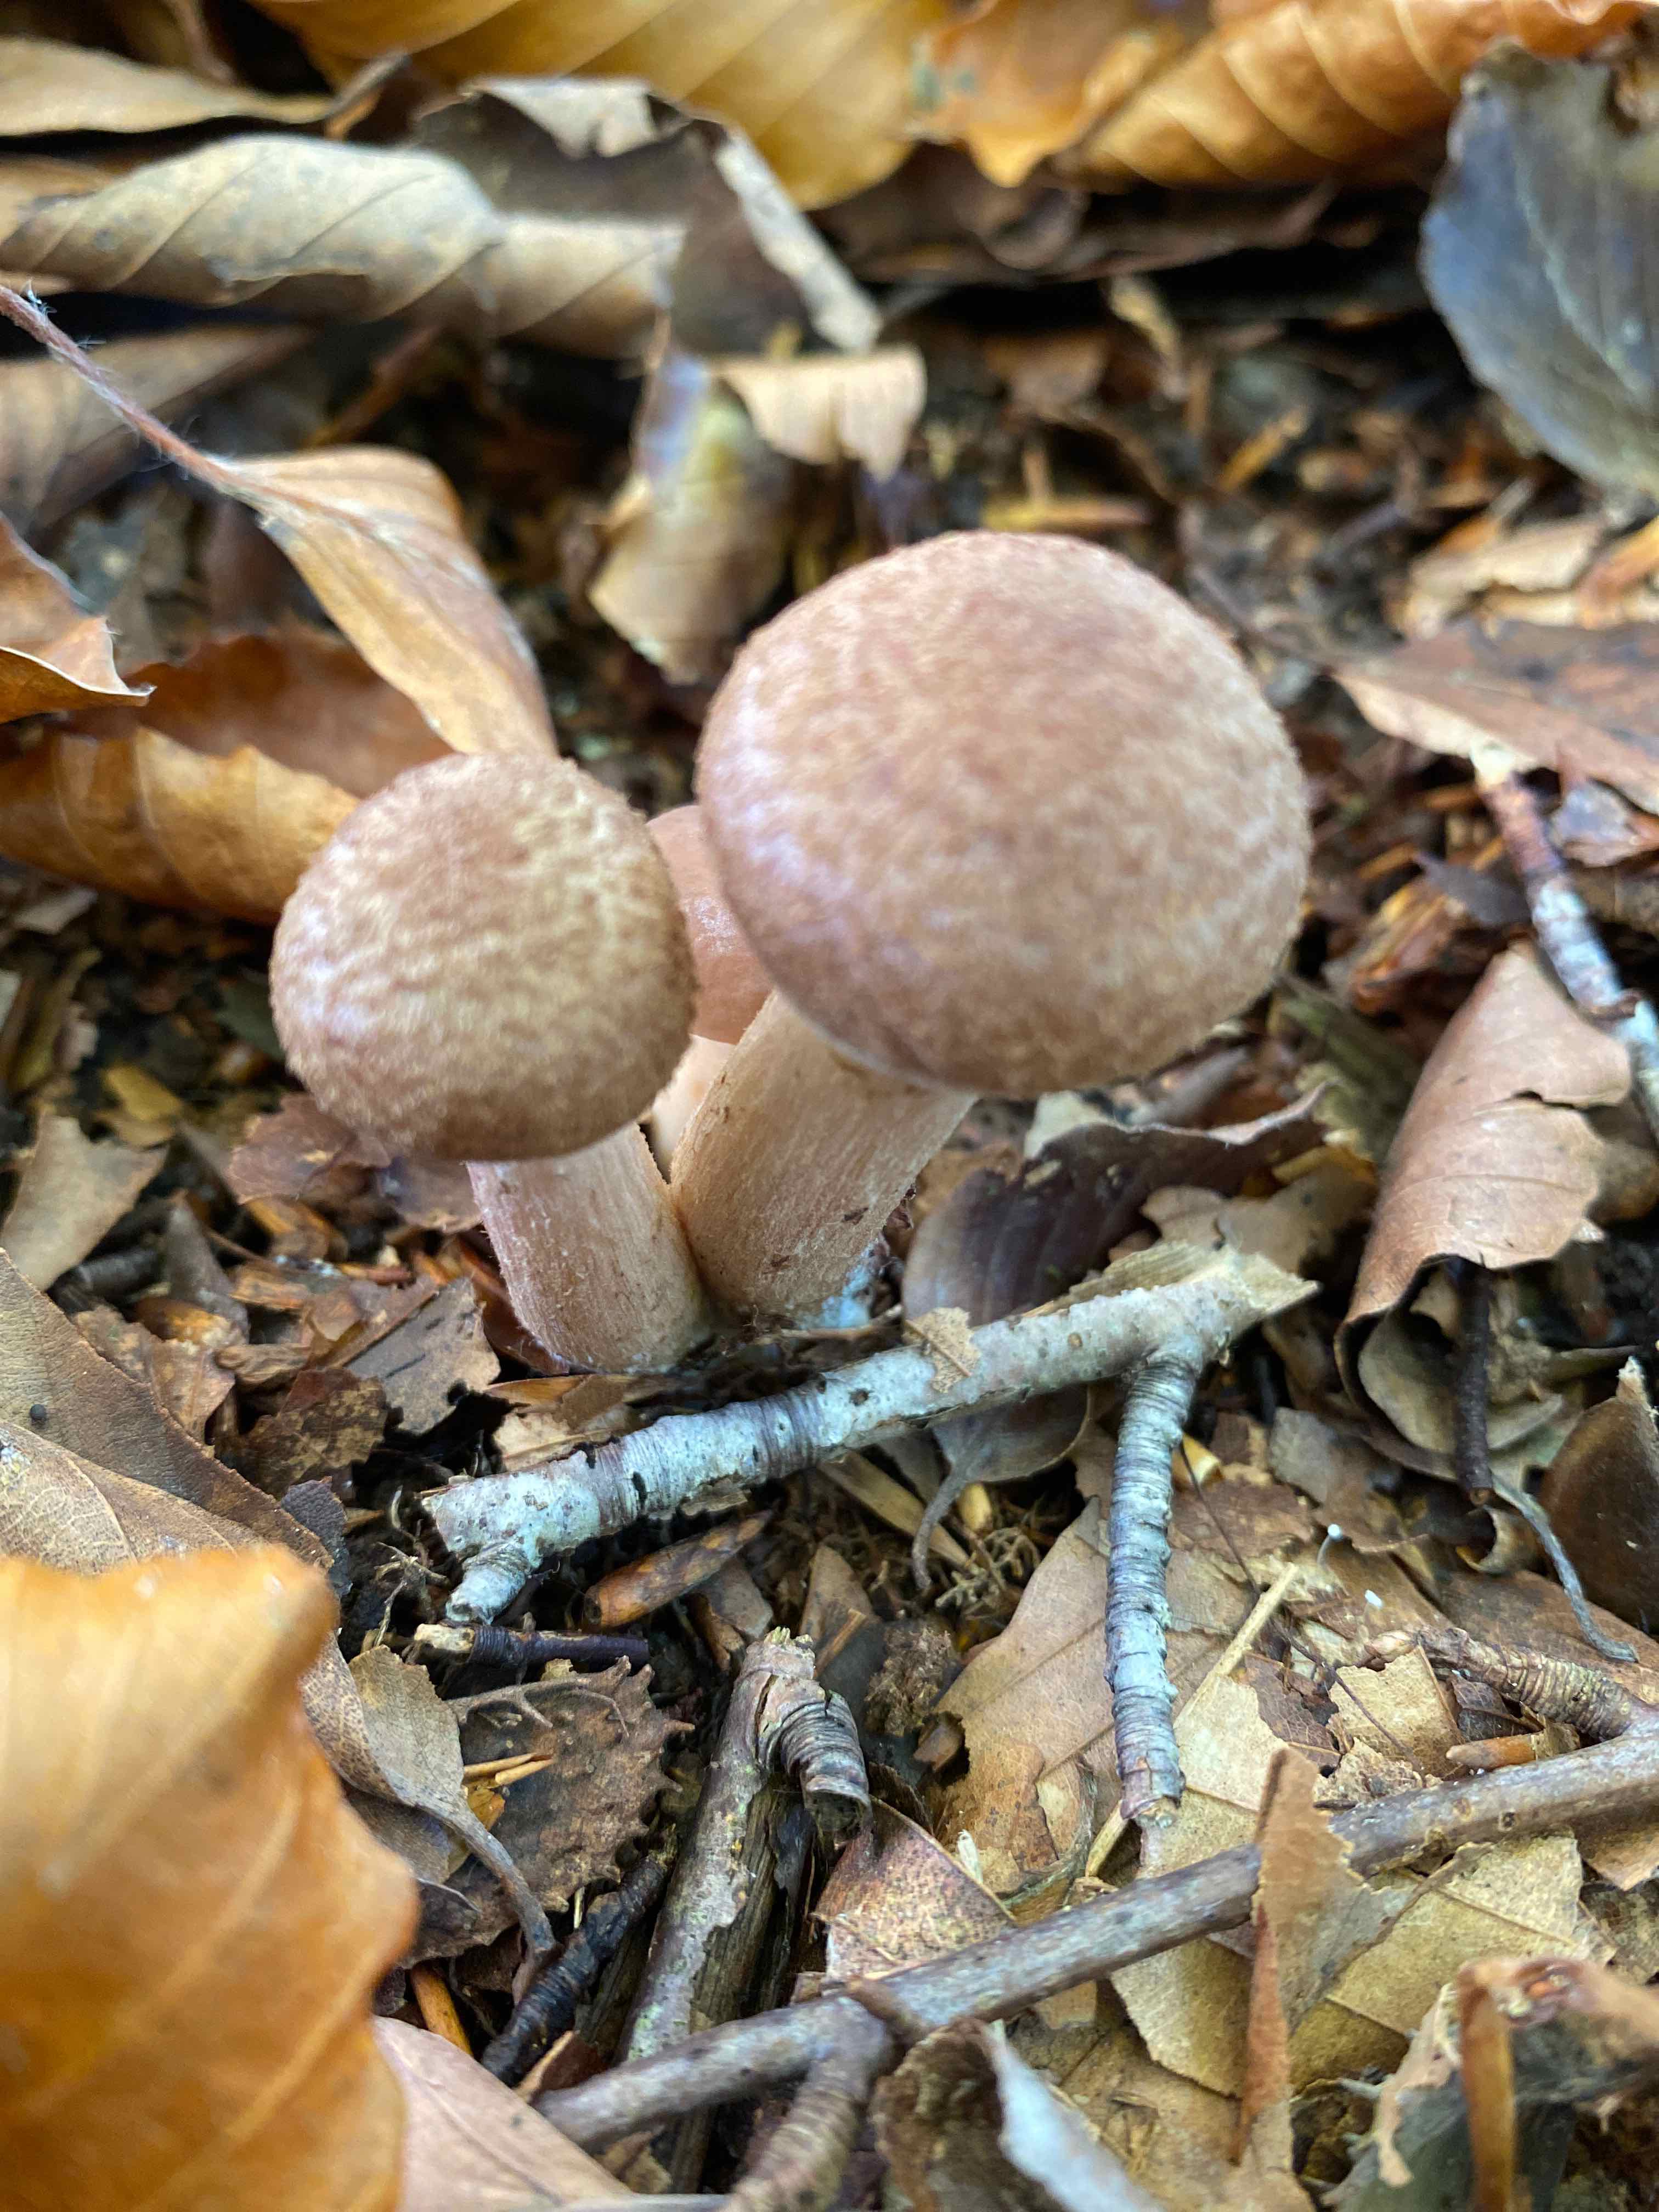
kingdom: Fungi
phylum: Basidiomycota
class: Agaricomycetes
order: Agaricales
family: Physalacriaceae
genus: Armillaria
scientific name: Armillaria lutea
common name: køllestokket honningsvamp
